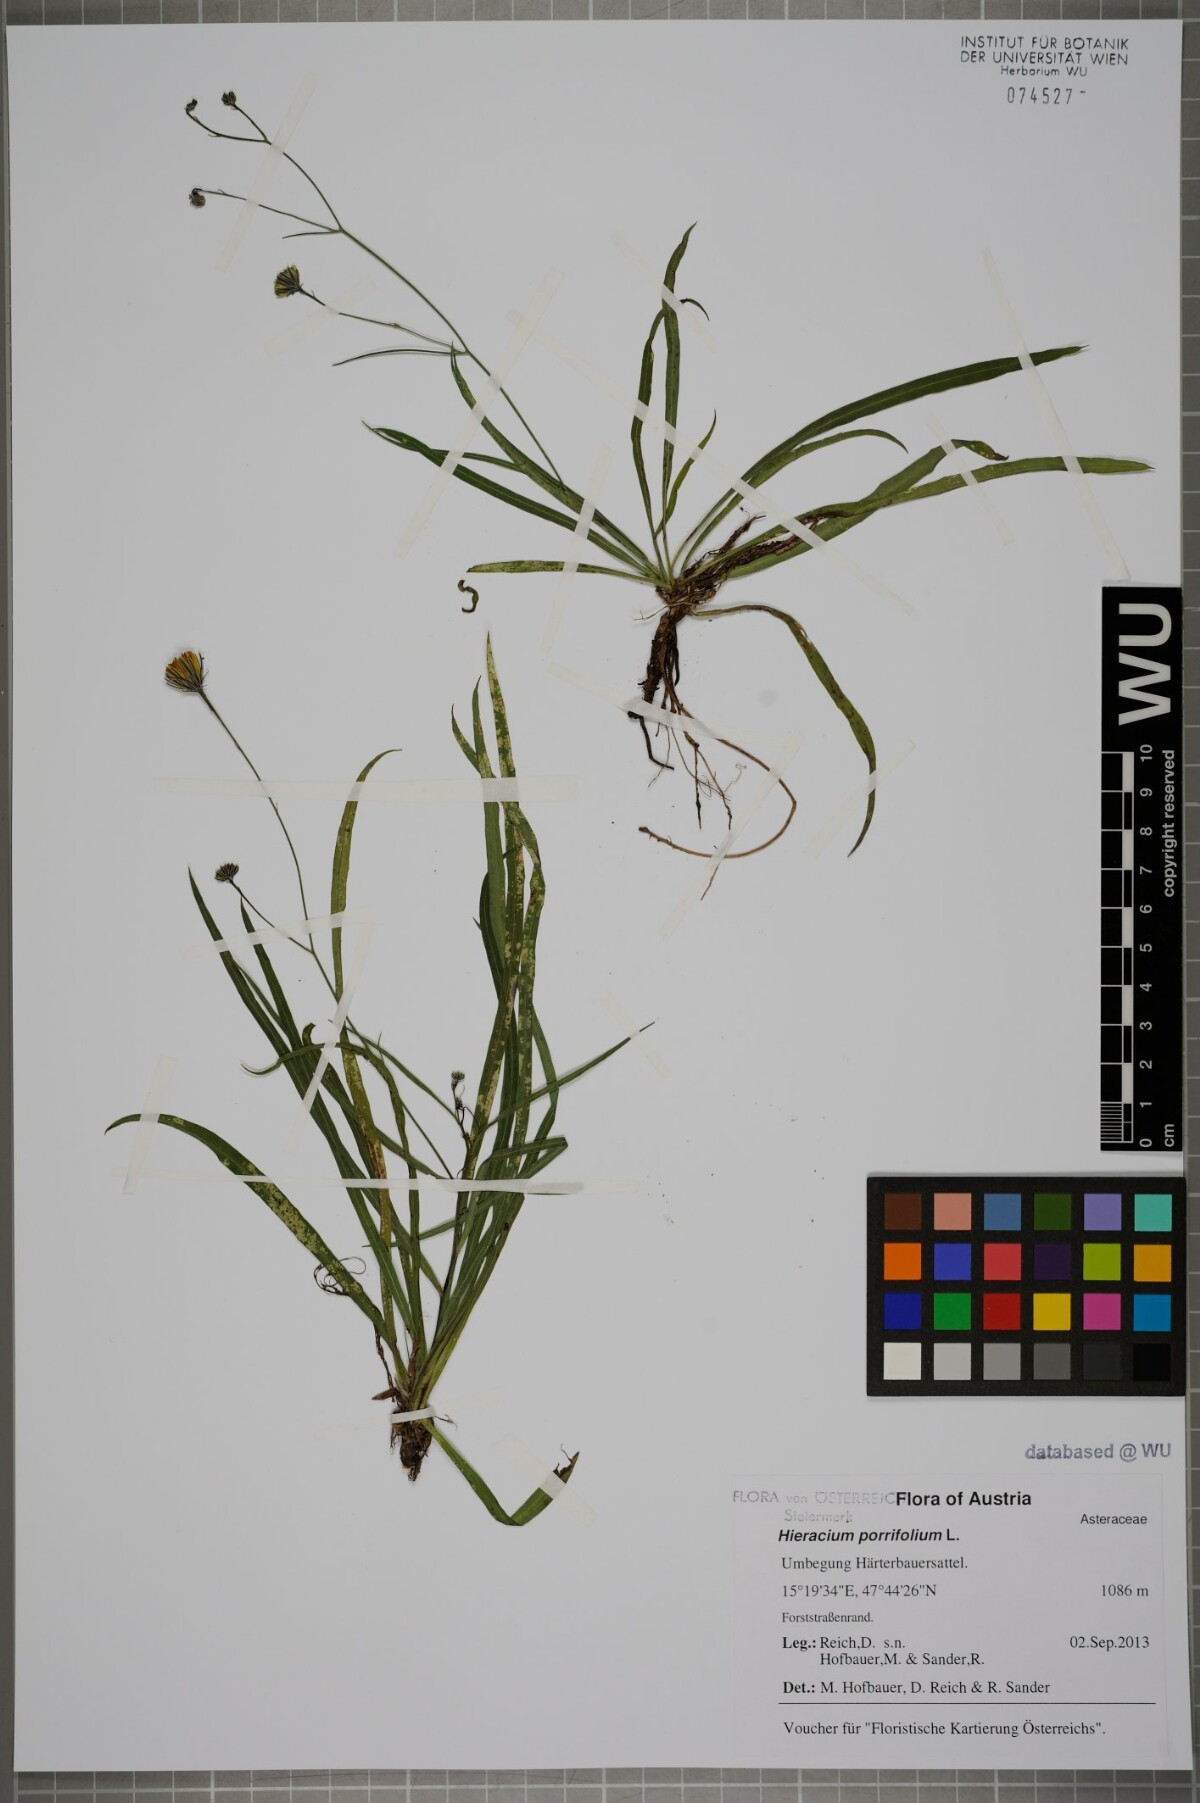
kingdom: Plantae
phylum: Tracheophyta
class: Magnoliopsida
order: Asterales
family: Asteraceae
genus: Hieracium
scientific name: Hieracium porrifolium
